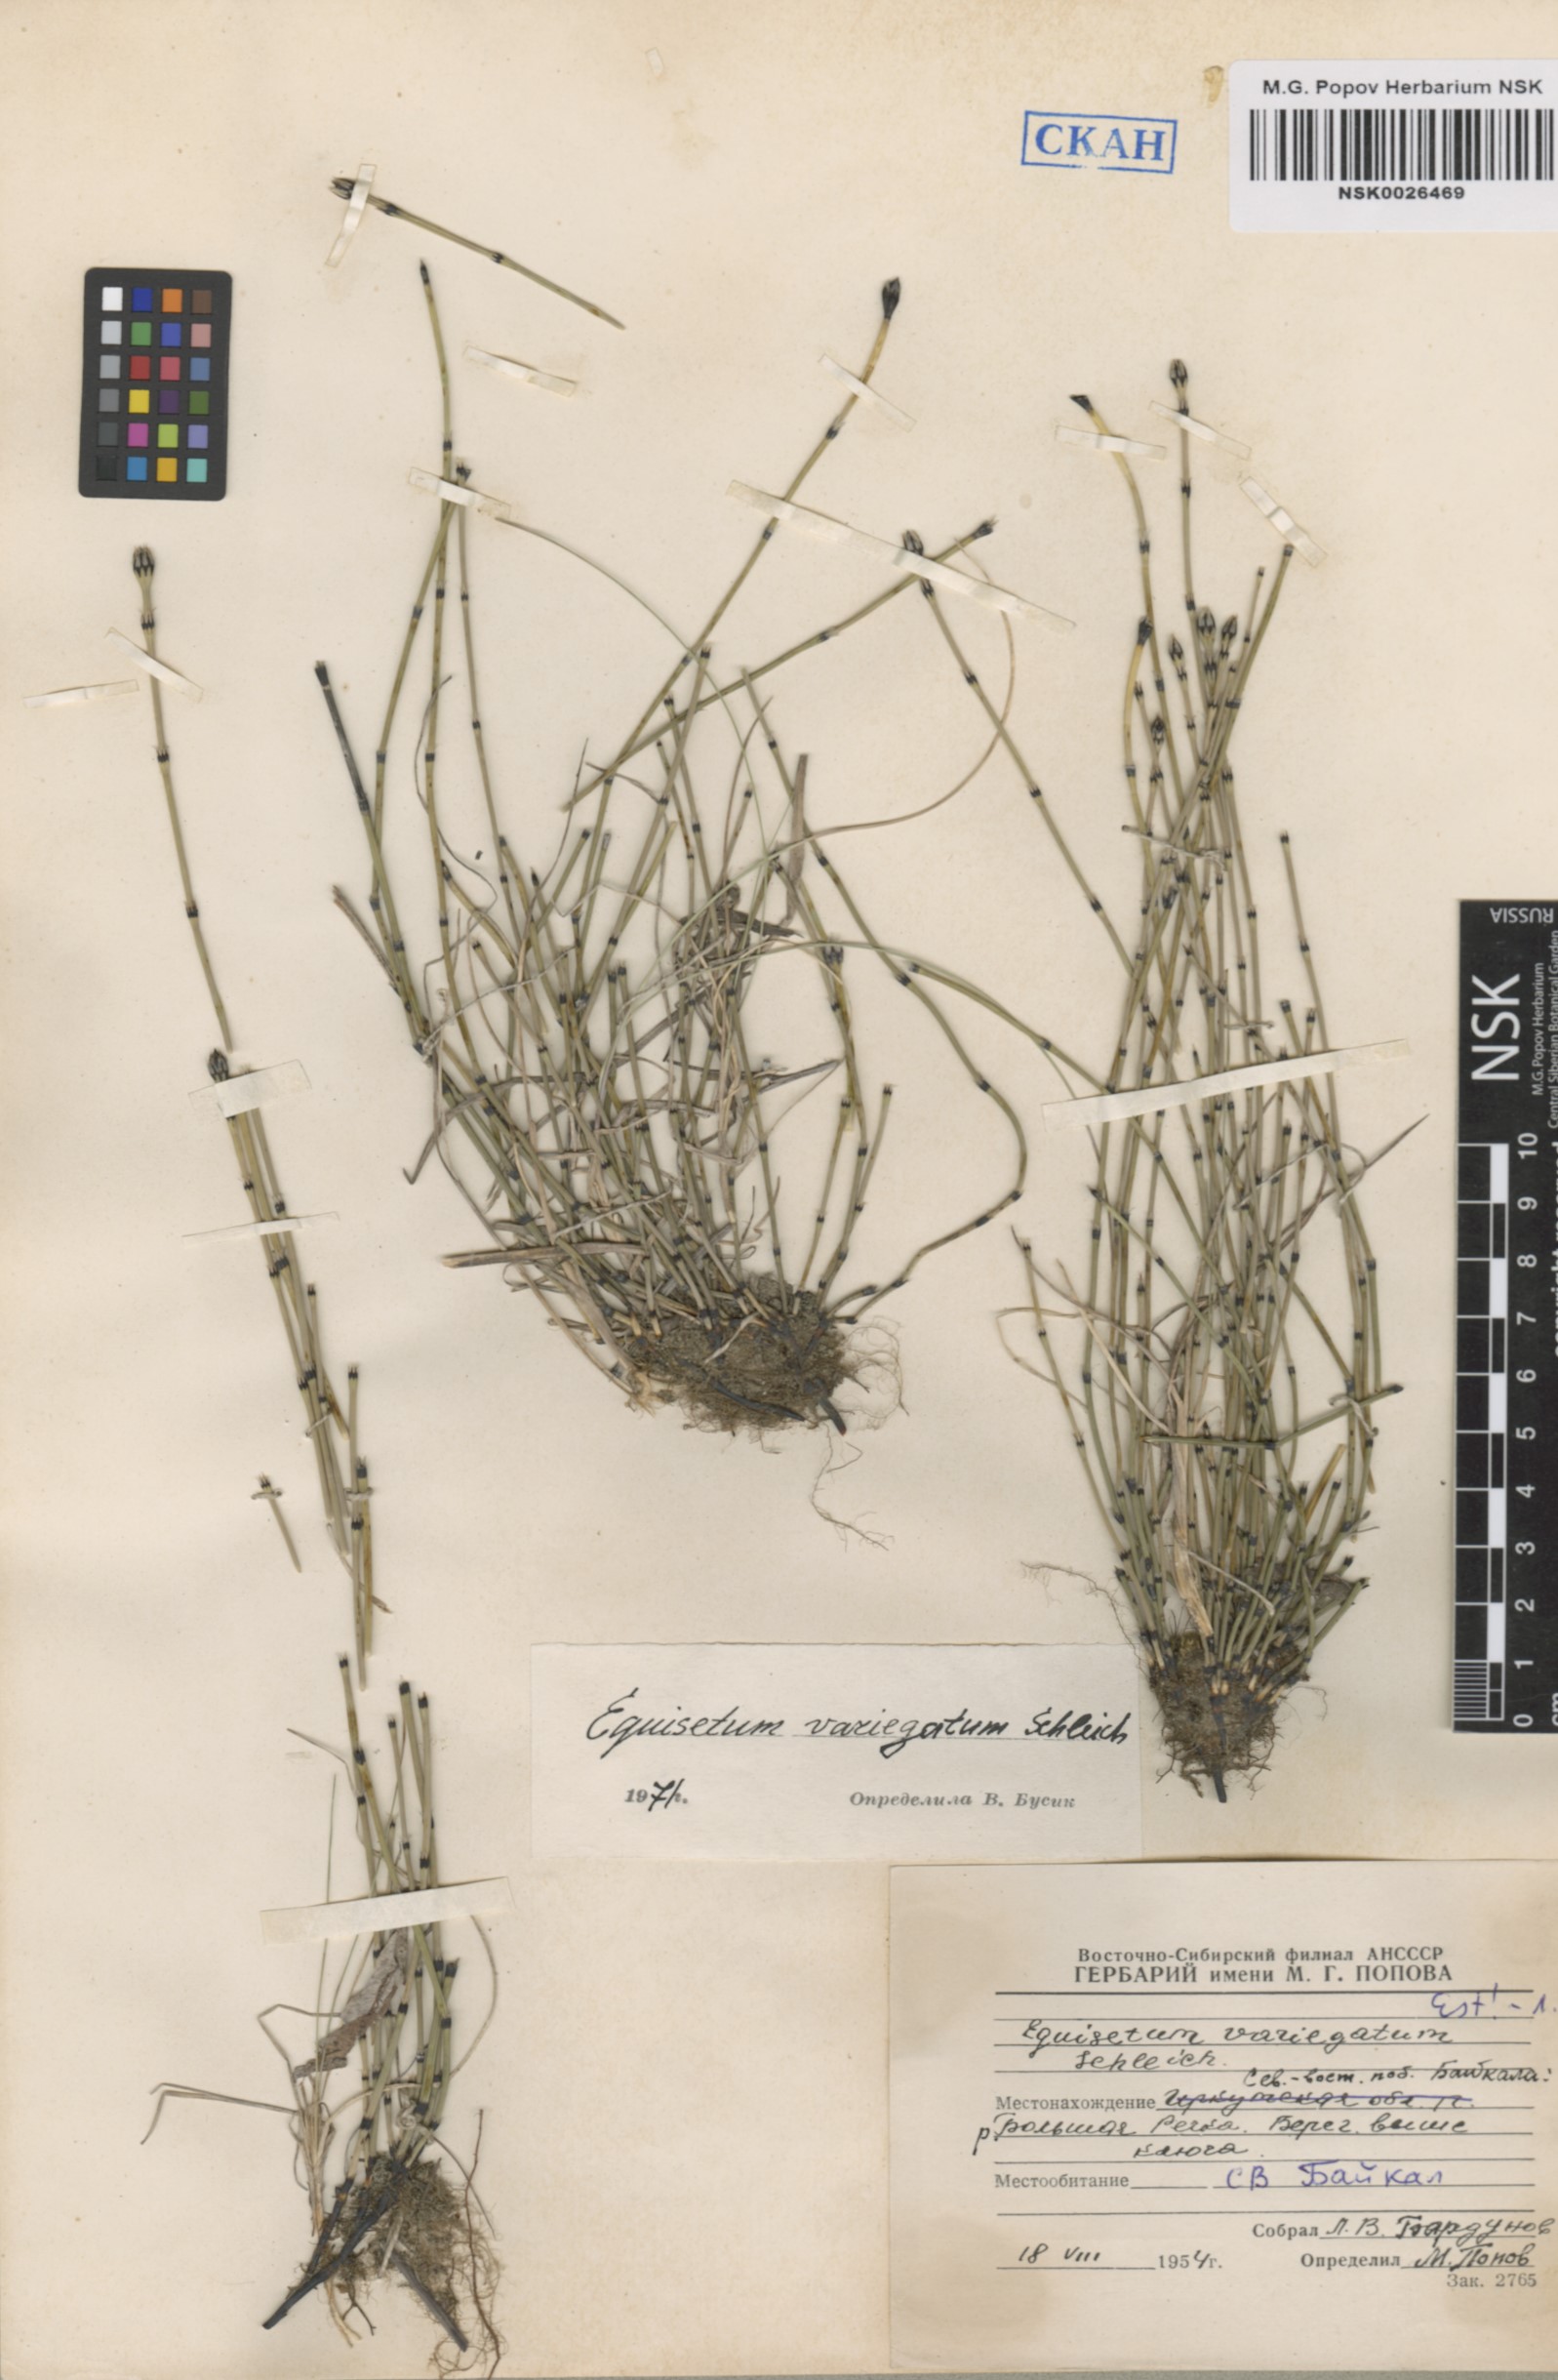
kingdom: Plantae
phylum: Tracheophyta
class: Polypodiopsida
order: Equisetales
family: Equisetaceae
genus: Equisetum
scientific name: Equisetum variegatum
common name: Variegated horsetail
